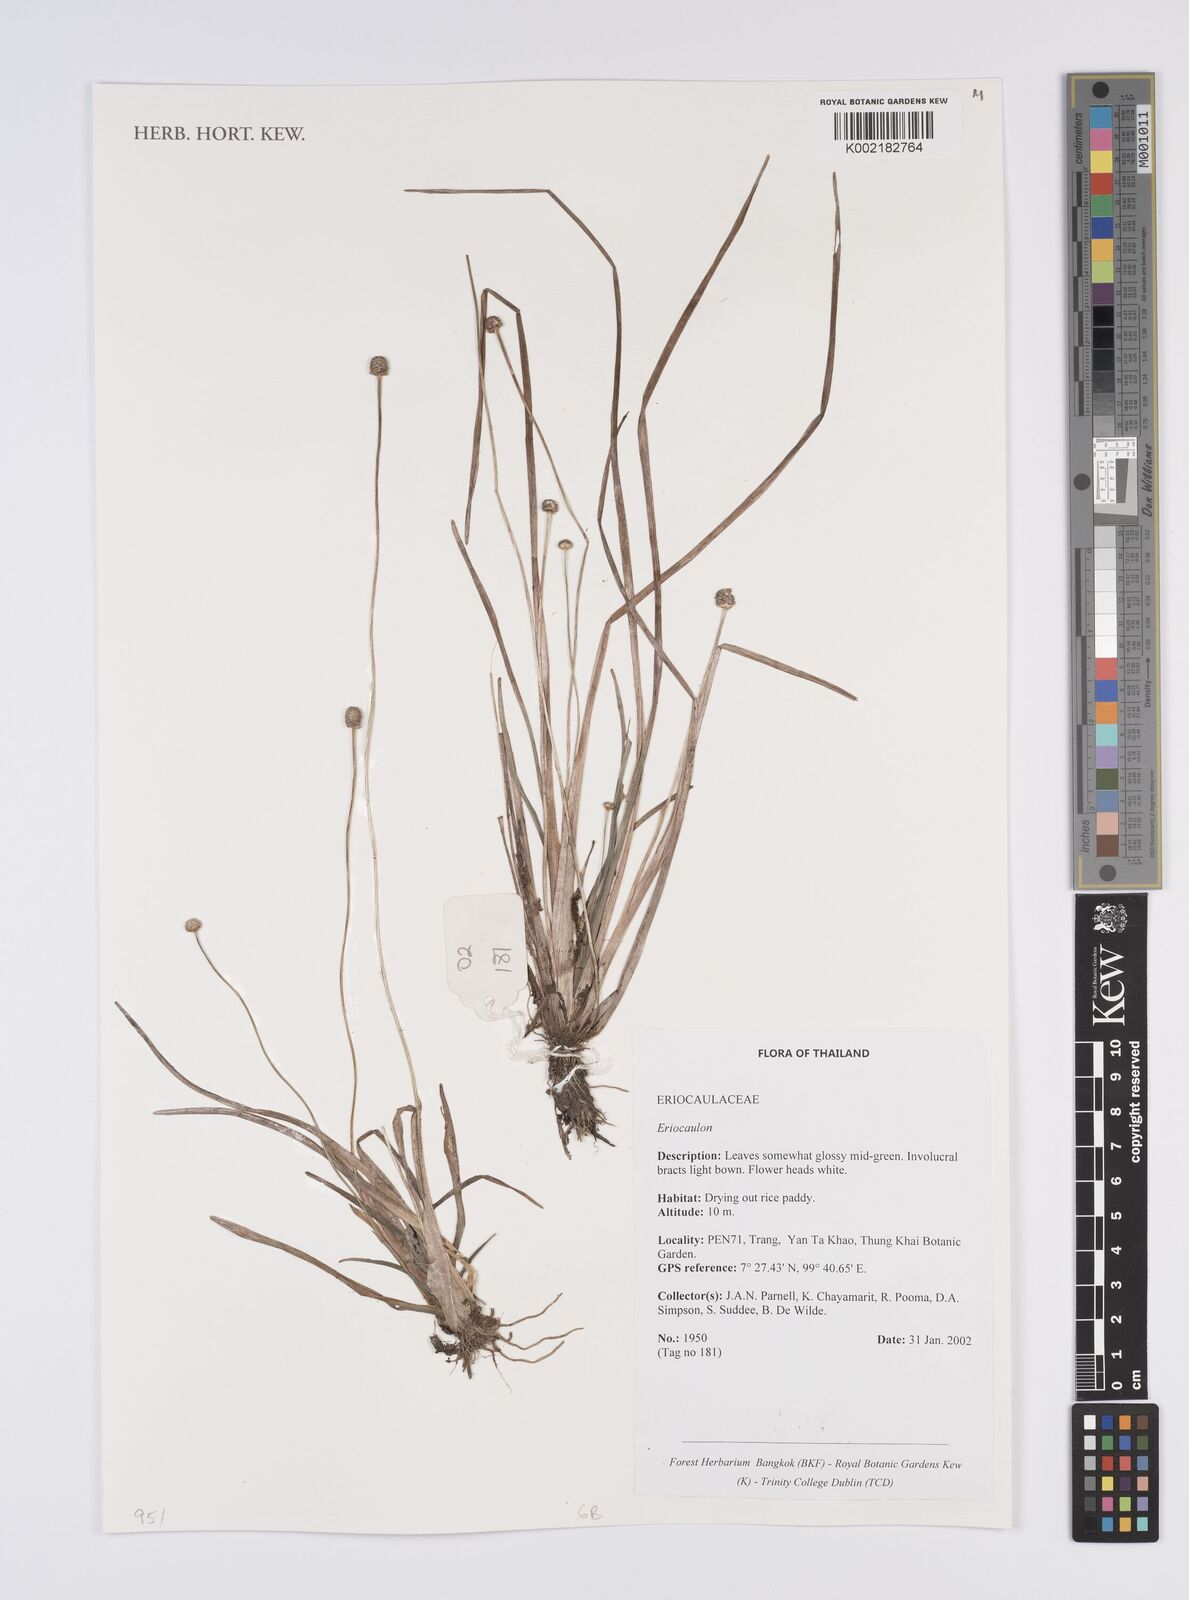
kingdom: Plantae
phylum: Tracheophyta
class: Liliopsida
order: Poales
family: Eriocaulaceae
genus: Eriocaulon
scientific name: Eriocaulon
